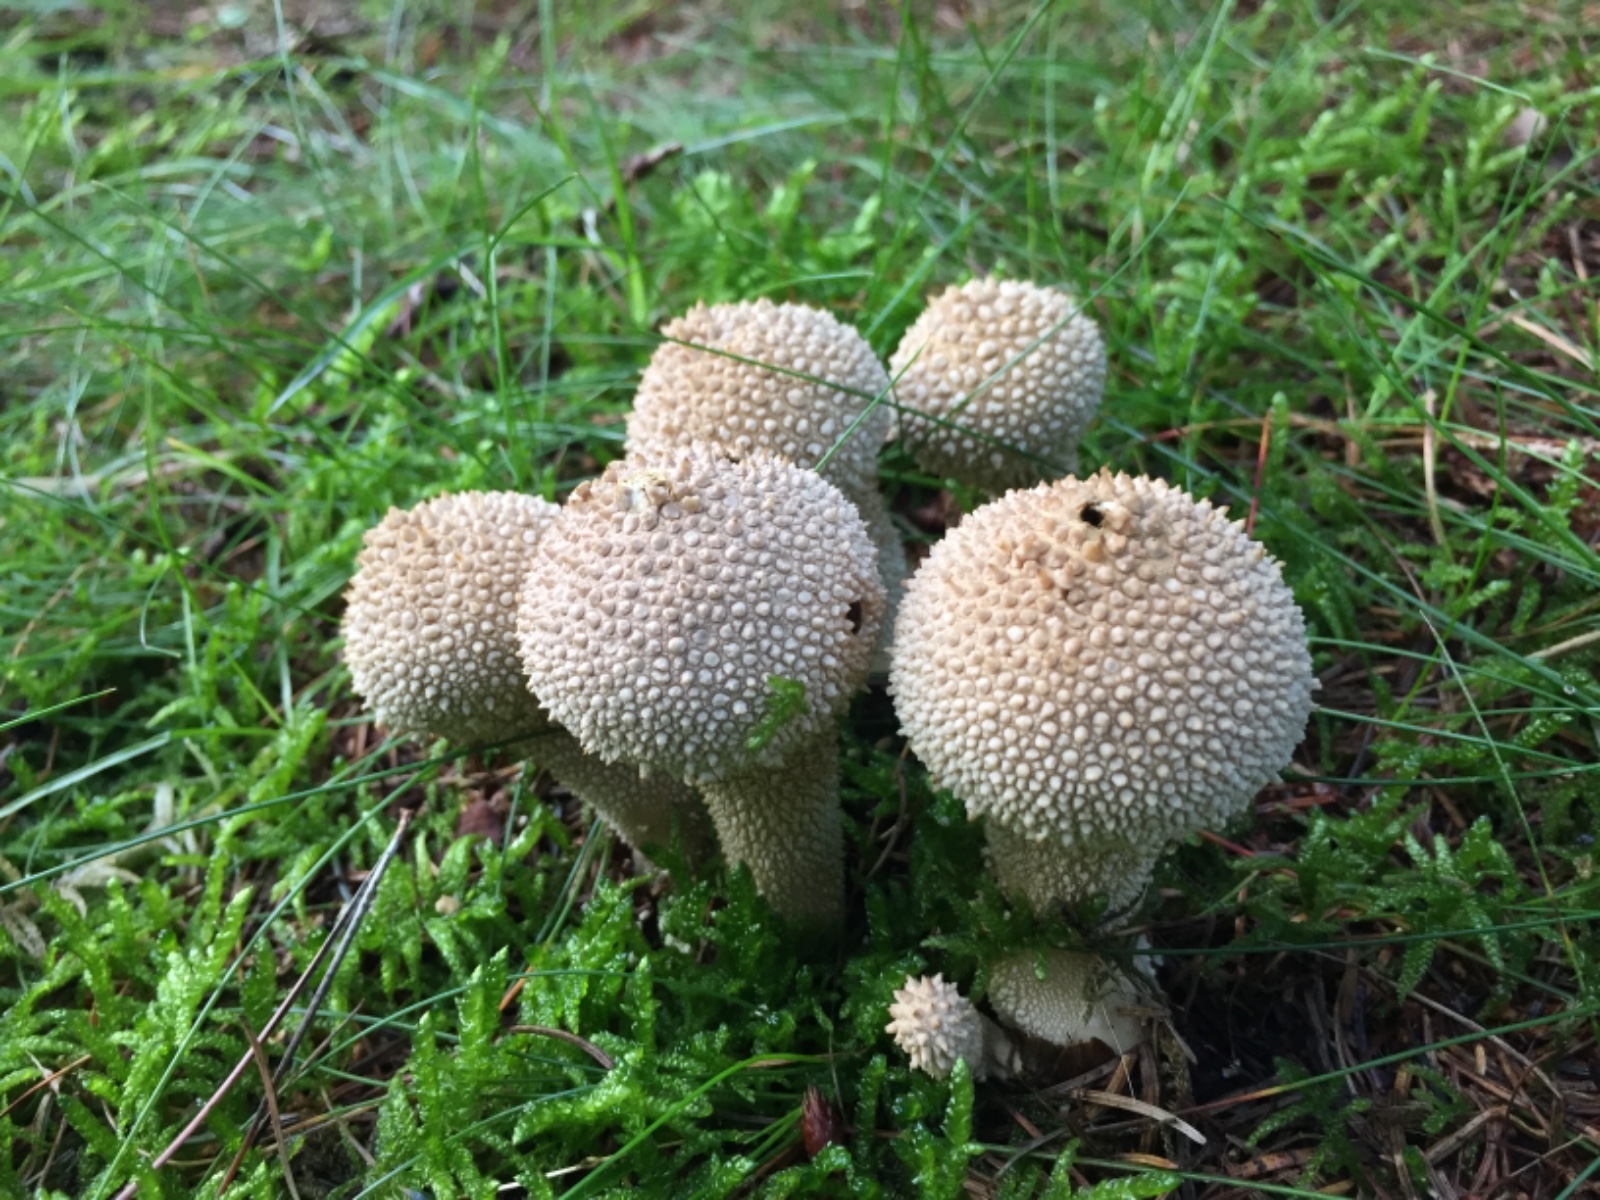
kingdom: Fungi
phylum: Basidiomycota
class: Agaricomycetes
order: Agaricales
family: Lycoperdaceae
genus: Lycoperdon
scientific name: Lycoperdon perlatum
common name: krystal-støvbold
